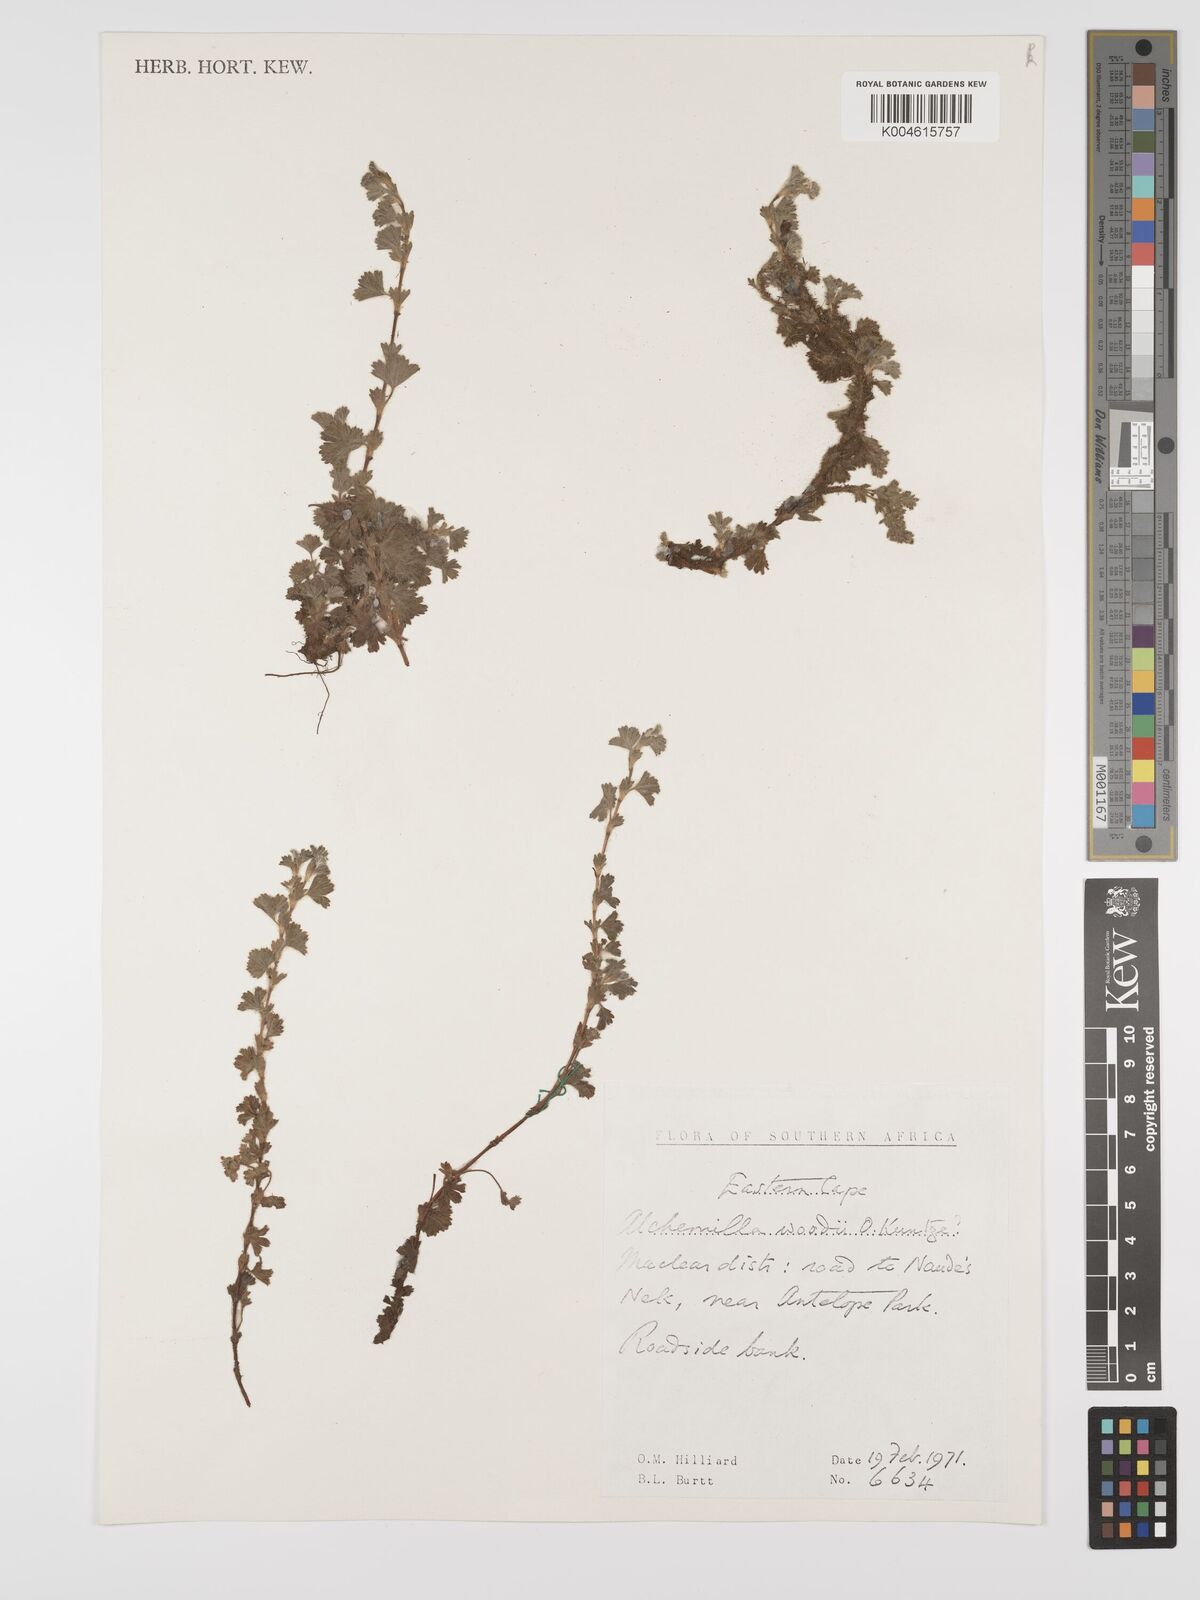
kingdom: Plantae
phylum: Tracheophyta
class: Magnoliopsida
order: Rosales
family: Rosaceae
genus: Alchemilla
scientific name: Alchemilla woodii
